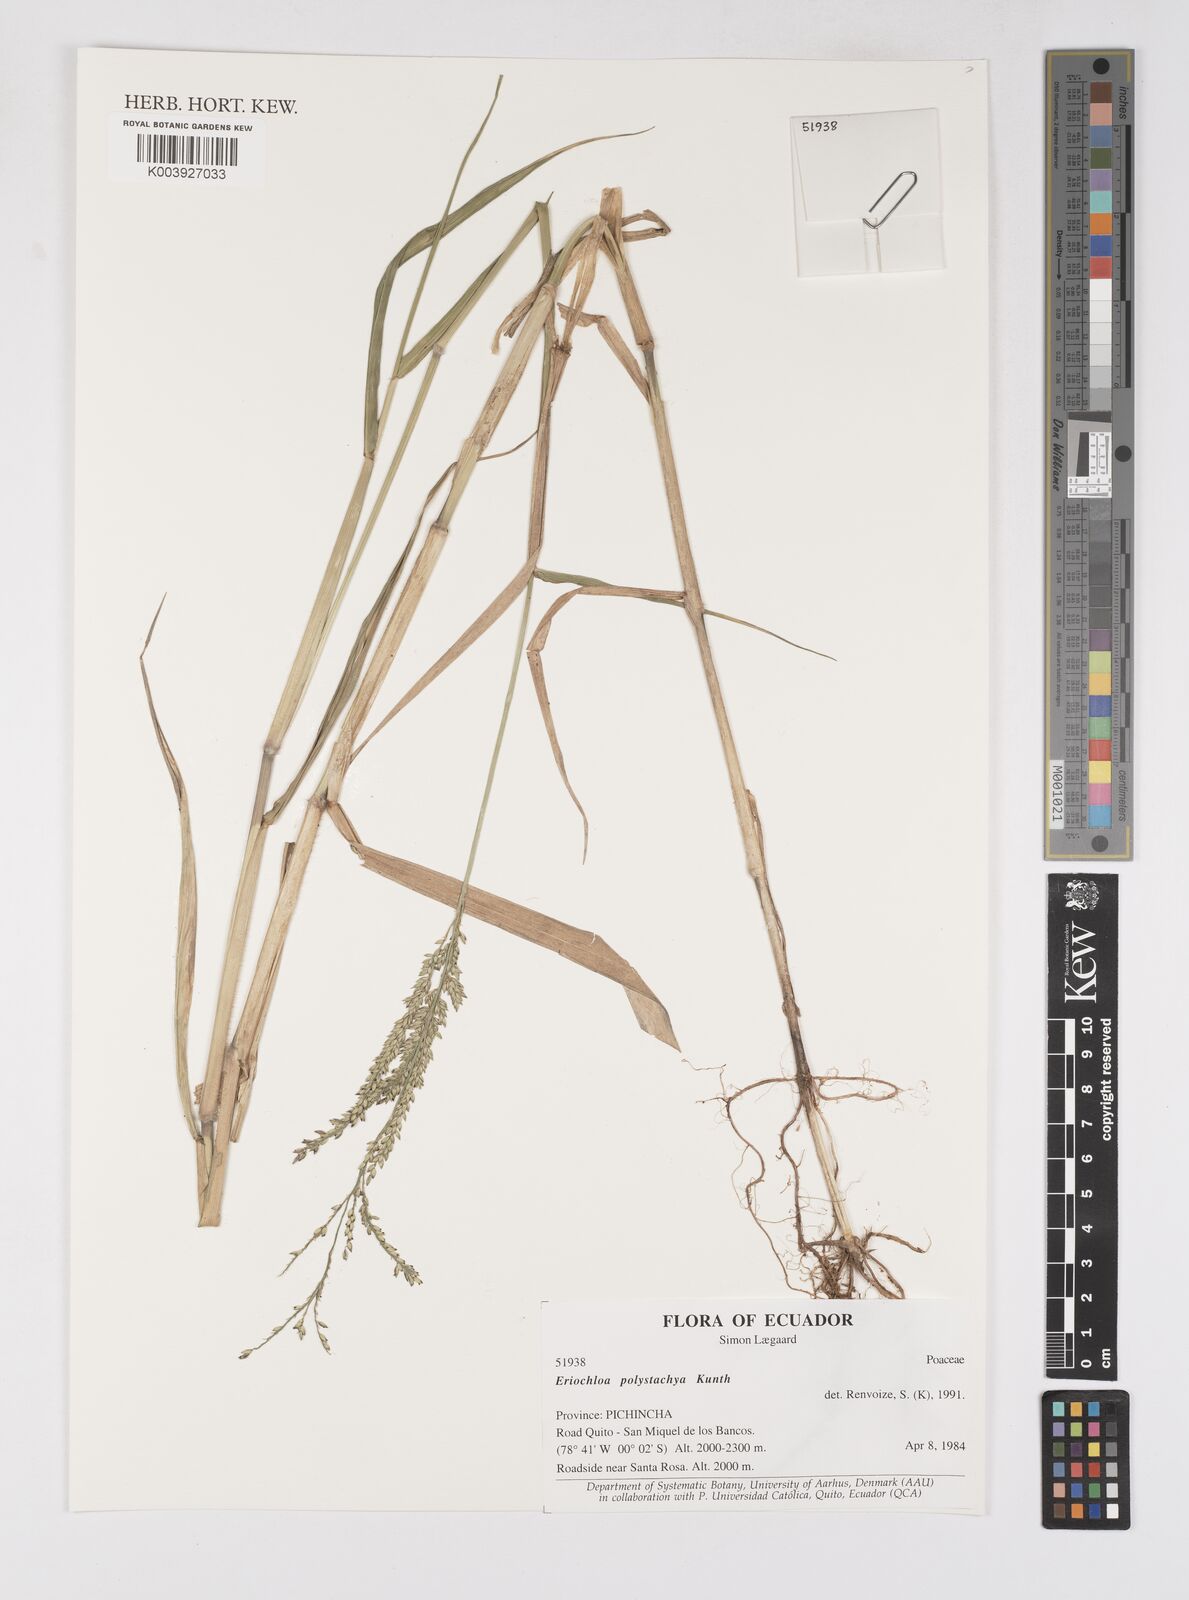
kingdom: Plantae
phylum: Tracheophyta
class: Liliopsida
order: Poales
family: Poaceae
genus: Urochloa
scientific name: Urochloa polystachya
